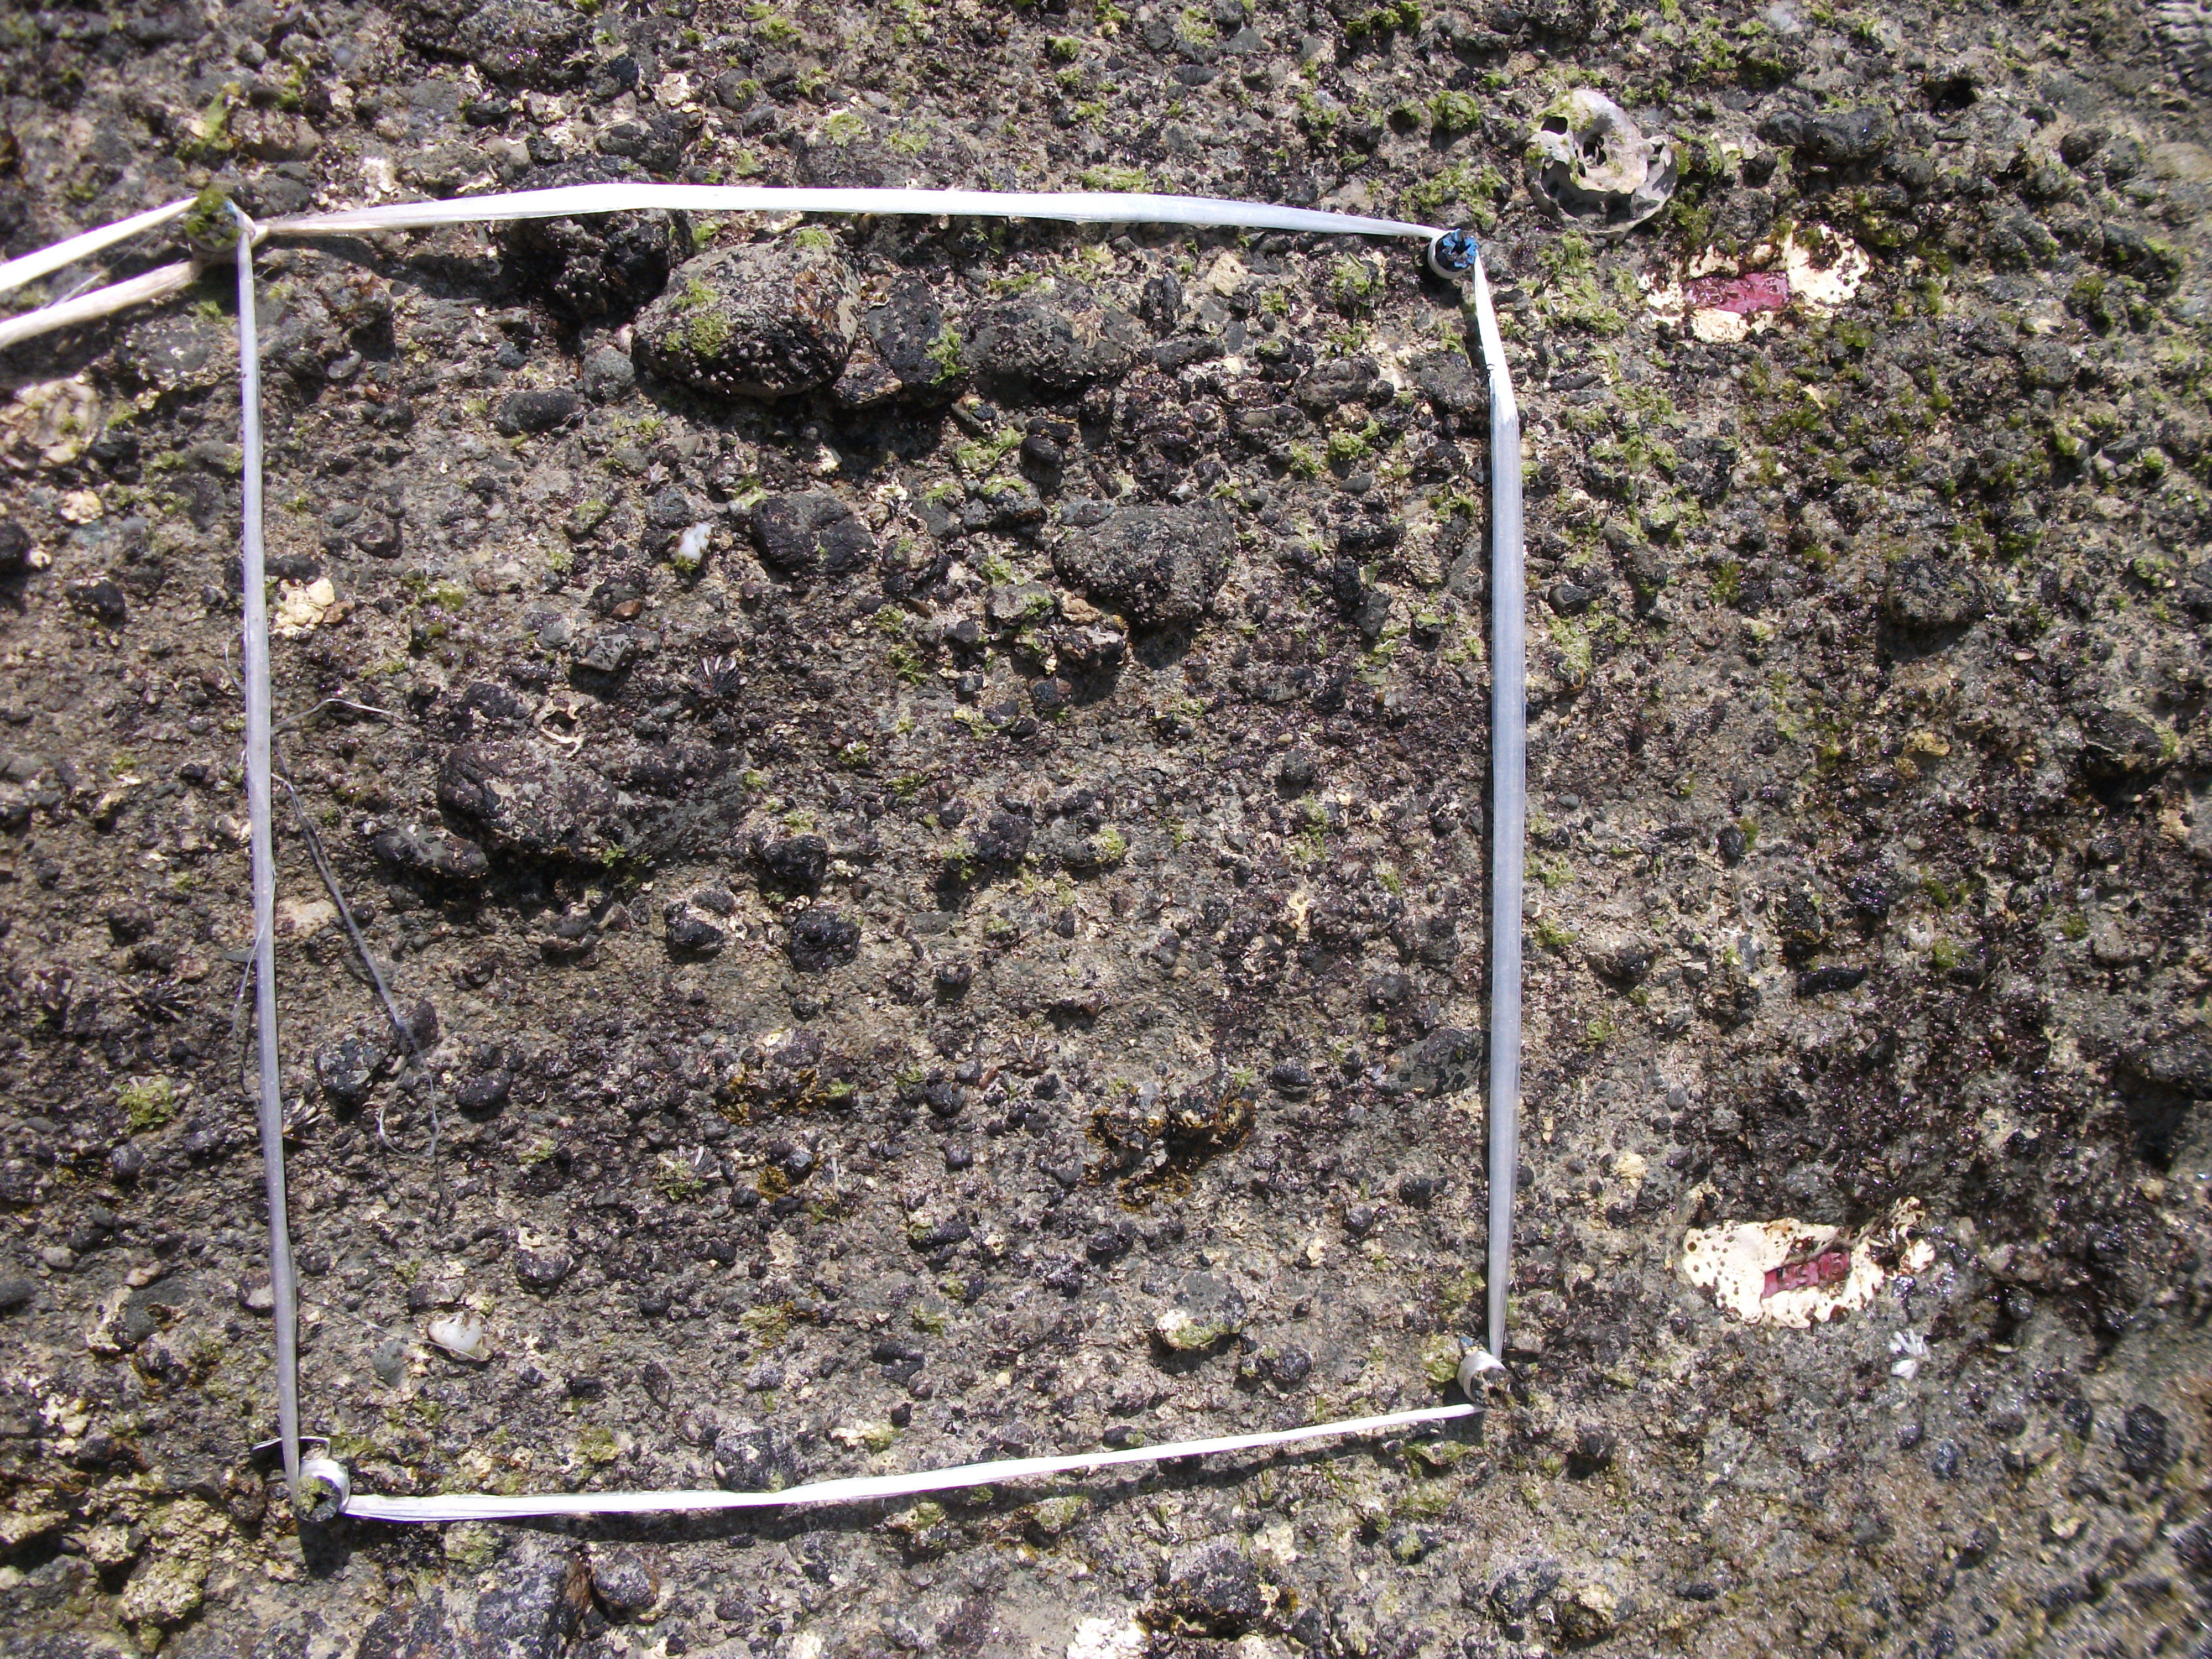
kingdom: Animalia
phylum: Arthropoda
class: Maxillopoda
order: Sessilia
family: Chthamalidae
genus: Chthamalus
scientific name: Chthamalus challengeri
